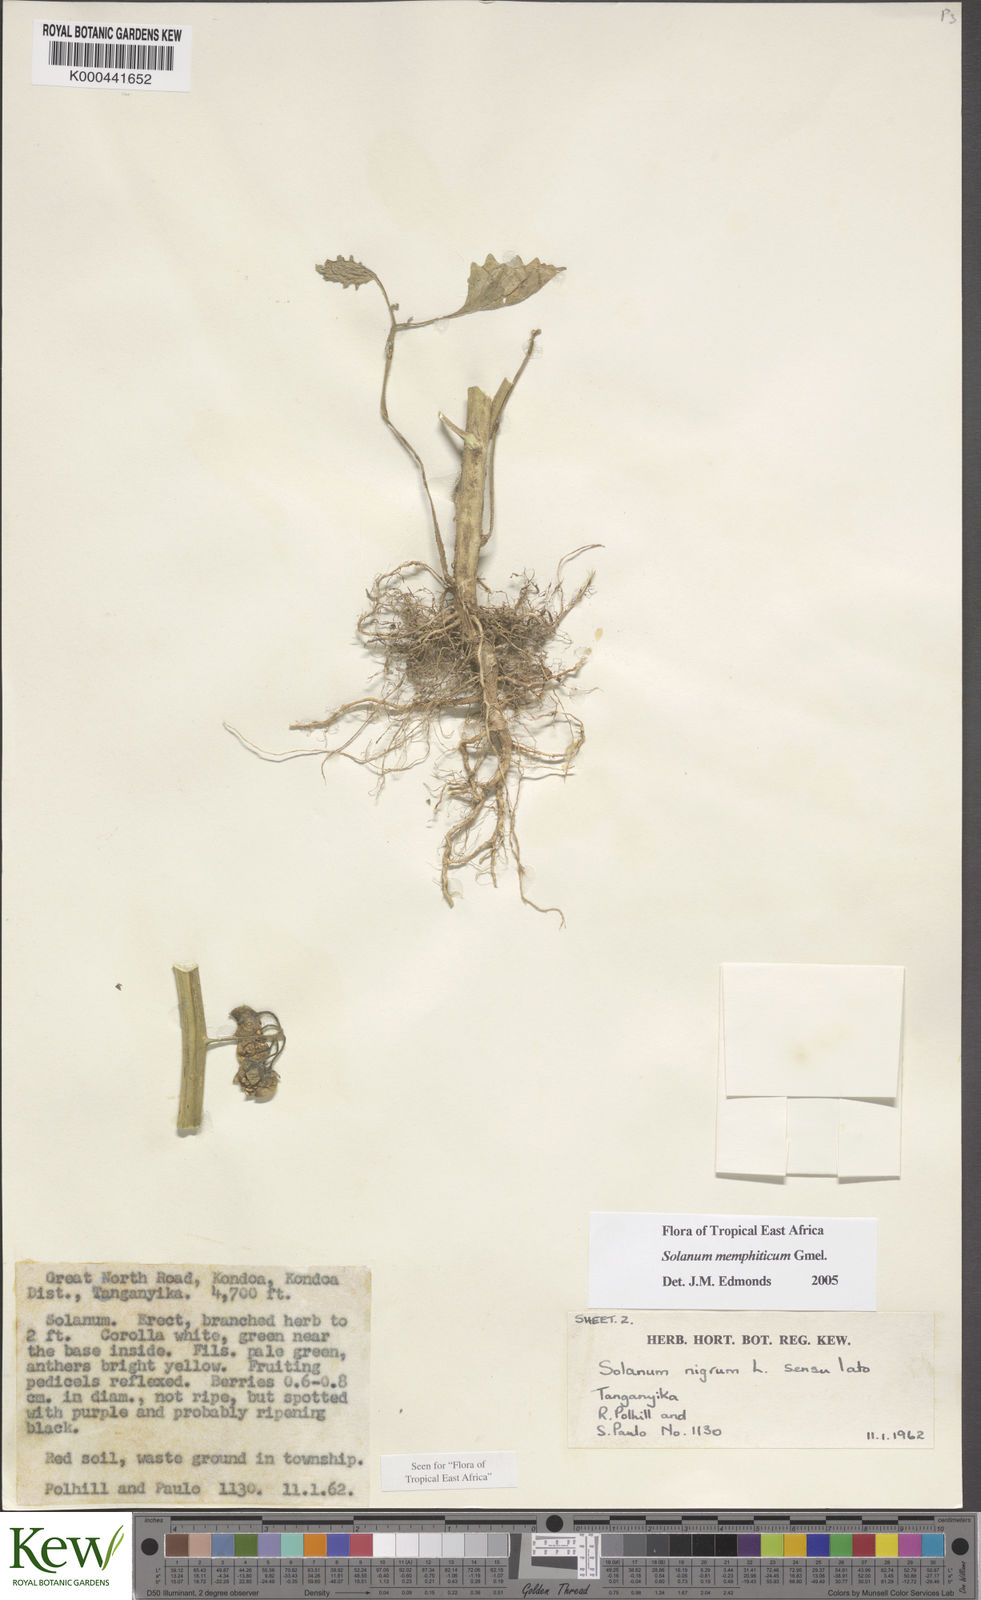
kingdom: Plantae
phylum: Tracheophyta
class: Magnoliopsida
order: Solanales
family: Solanaceae
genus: Solanum
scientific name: Solanum memphiticum
